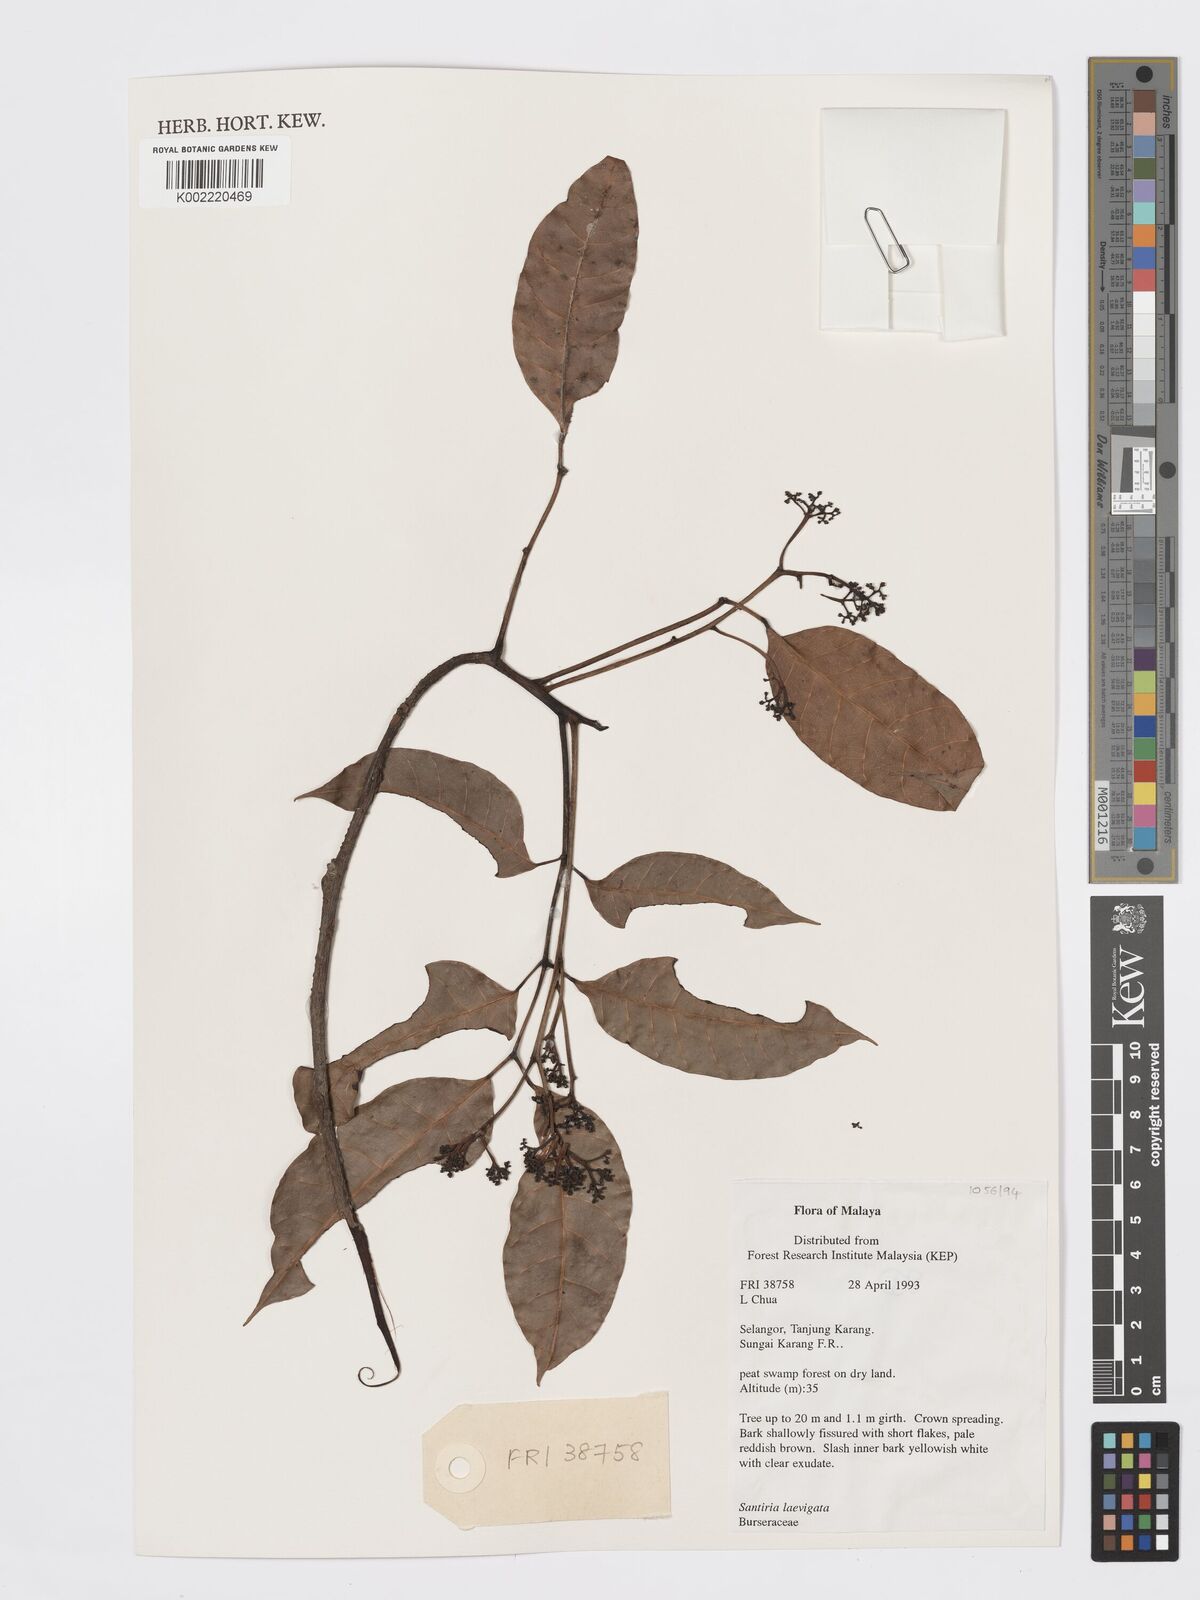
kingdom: Plantae
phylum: Tracheophyta
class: Magnoliopsida
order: Sapindales
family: Burseraceae
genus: Santiria
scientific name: Santiria laevigata
